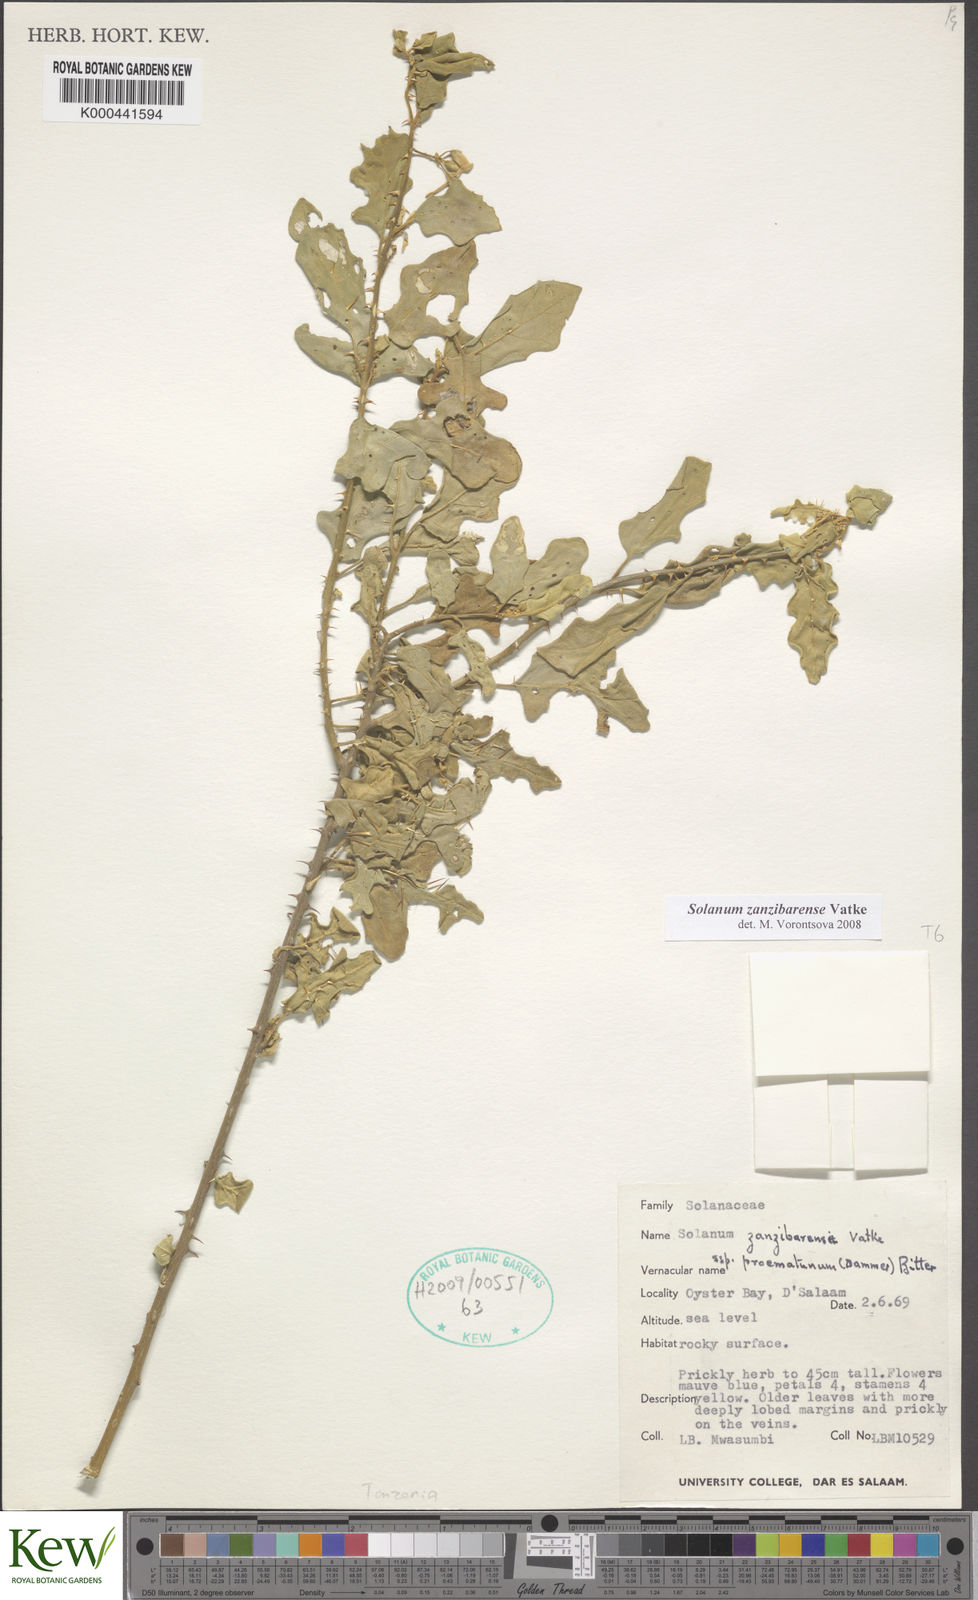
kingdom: Plantae
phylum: Tracheophyta
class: Magnoliopsida
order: Solanales
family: Solanaceae
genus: Solanum
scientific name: Solanum zanzibarense
